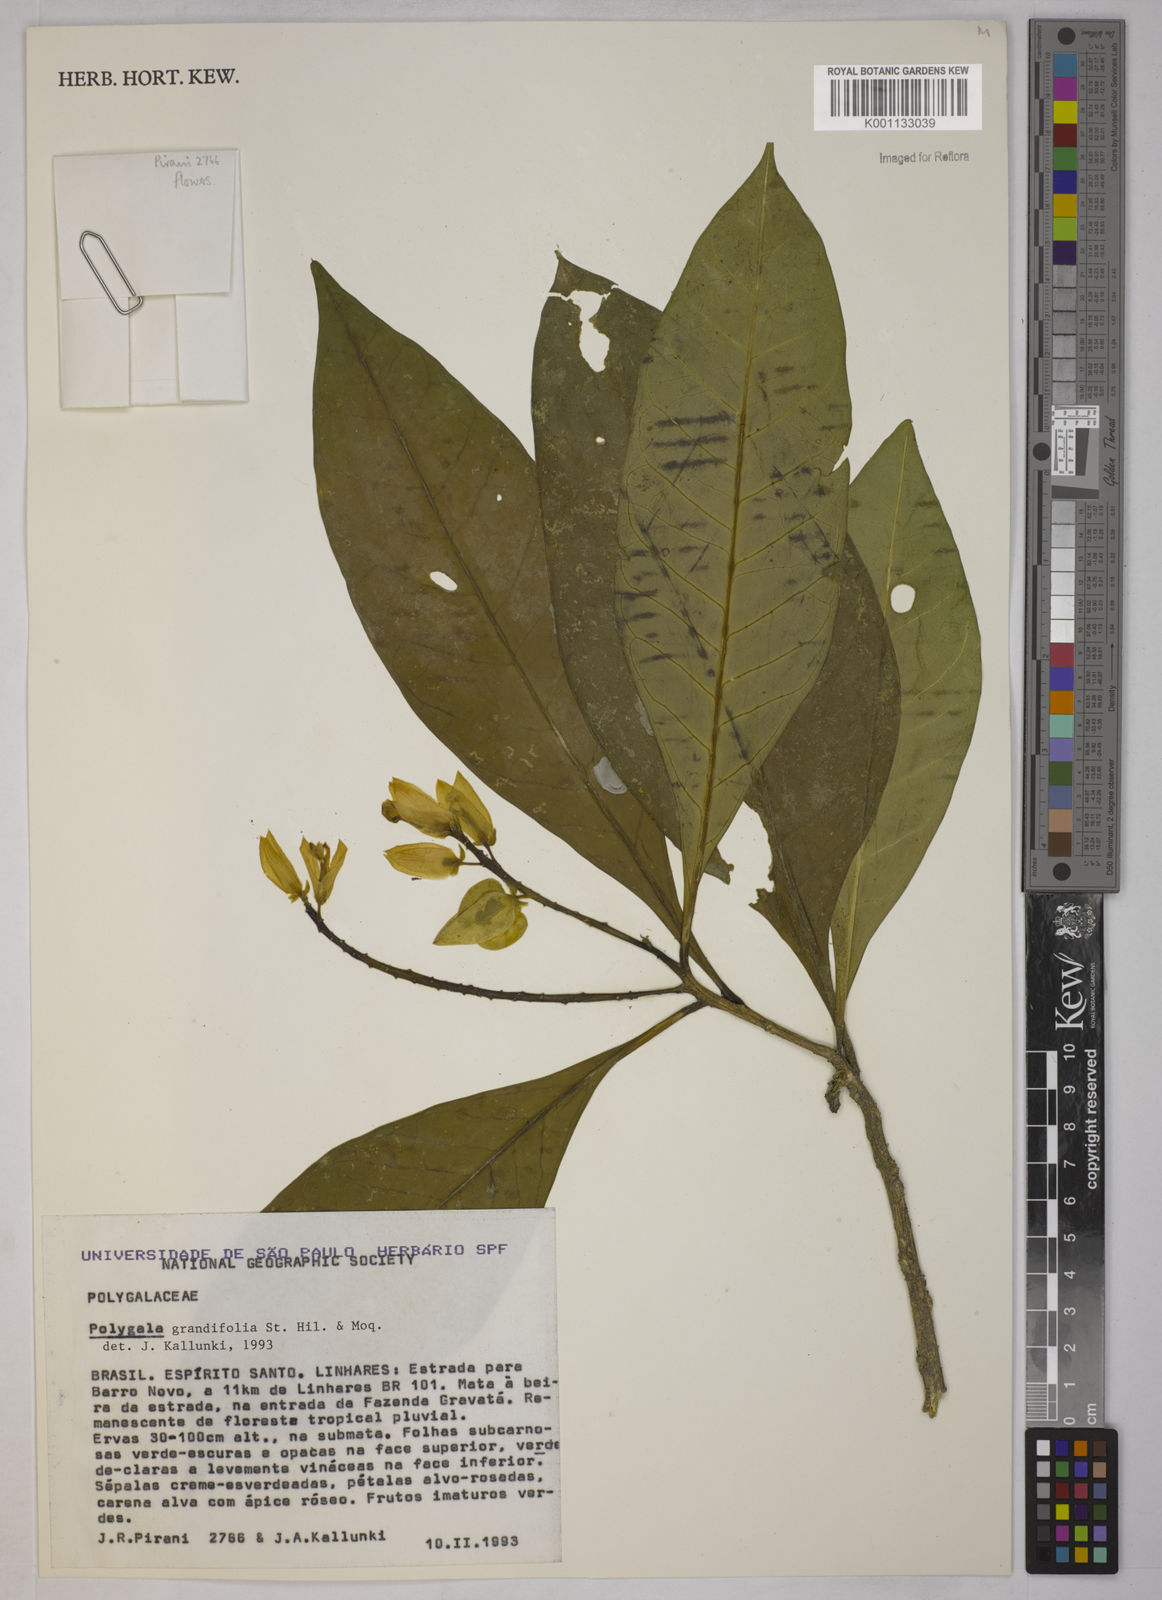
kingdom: Plantae
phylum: Tracheophyta
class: Magnoliopsida
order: Fabales
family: Polygalaceae
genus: Caamembeca
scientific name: Caamembeca grandifolia
